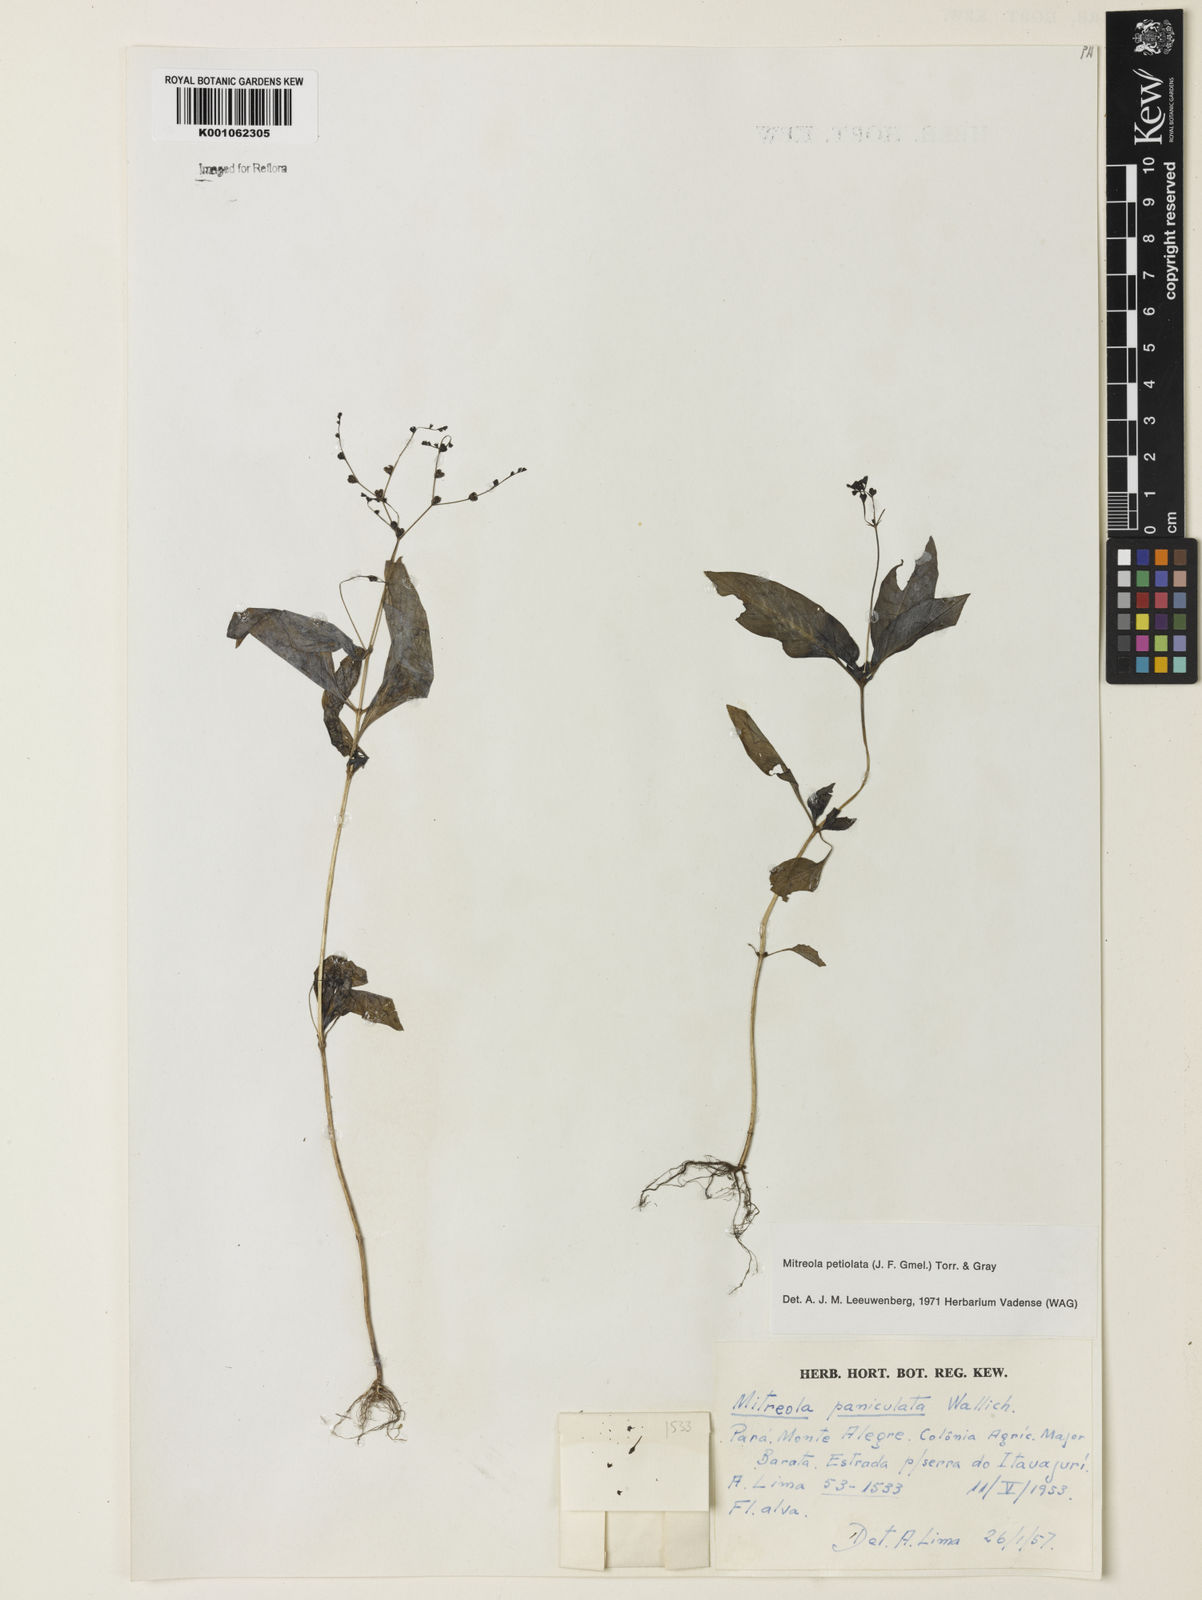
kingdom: Plantae
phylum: Tracheophyta
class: Magnoliopsida
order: Gentianales
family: Loganiaceae
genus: Mitreola
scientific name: Mitreola petiolata
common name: Lax hornpod
